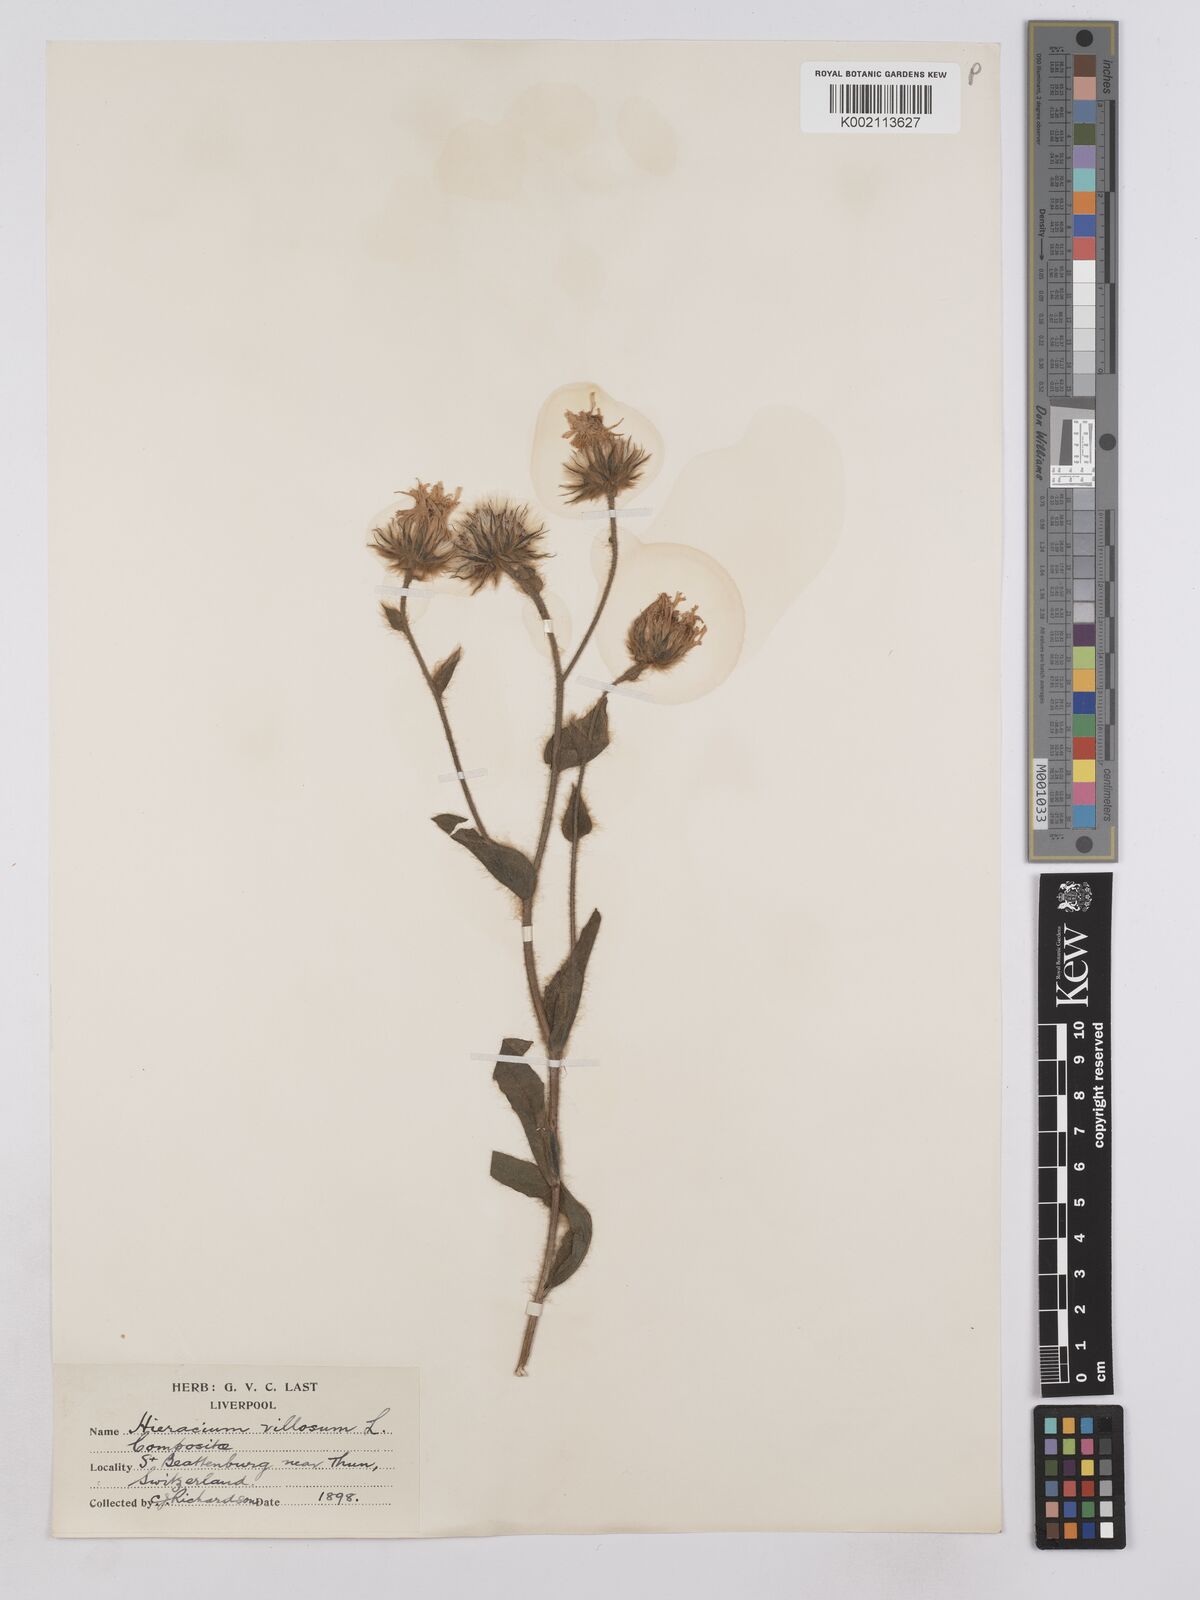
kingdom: Plantae
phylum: Tracheophyta
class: Magnoliopsida
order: Asterales
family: Asteraceae
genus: Hieracium
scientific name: Hieracium villosum
